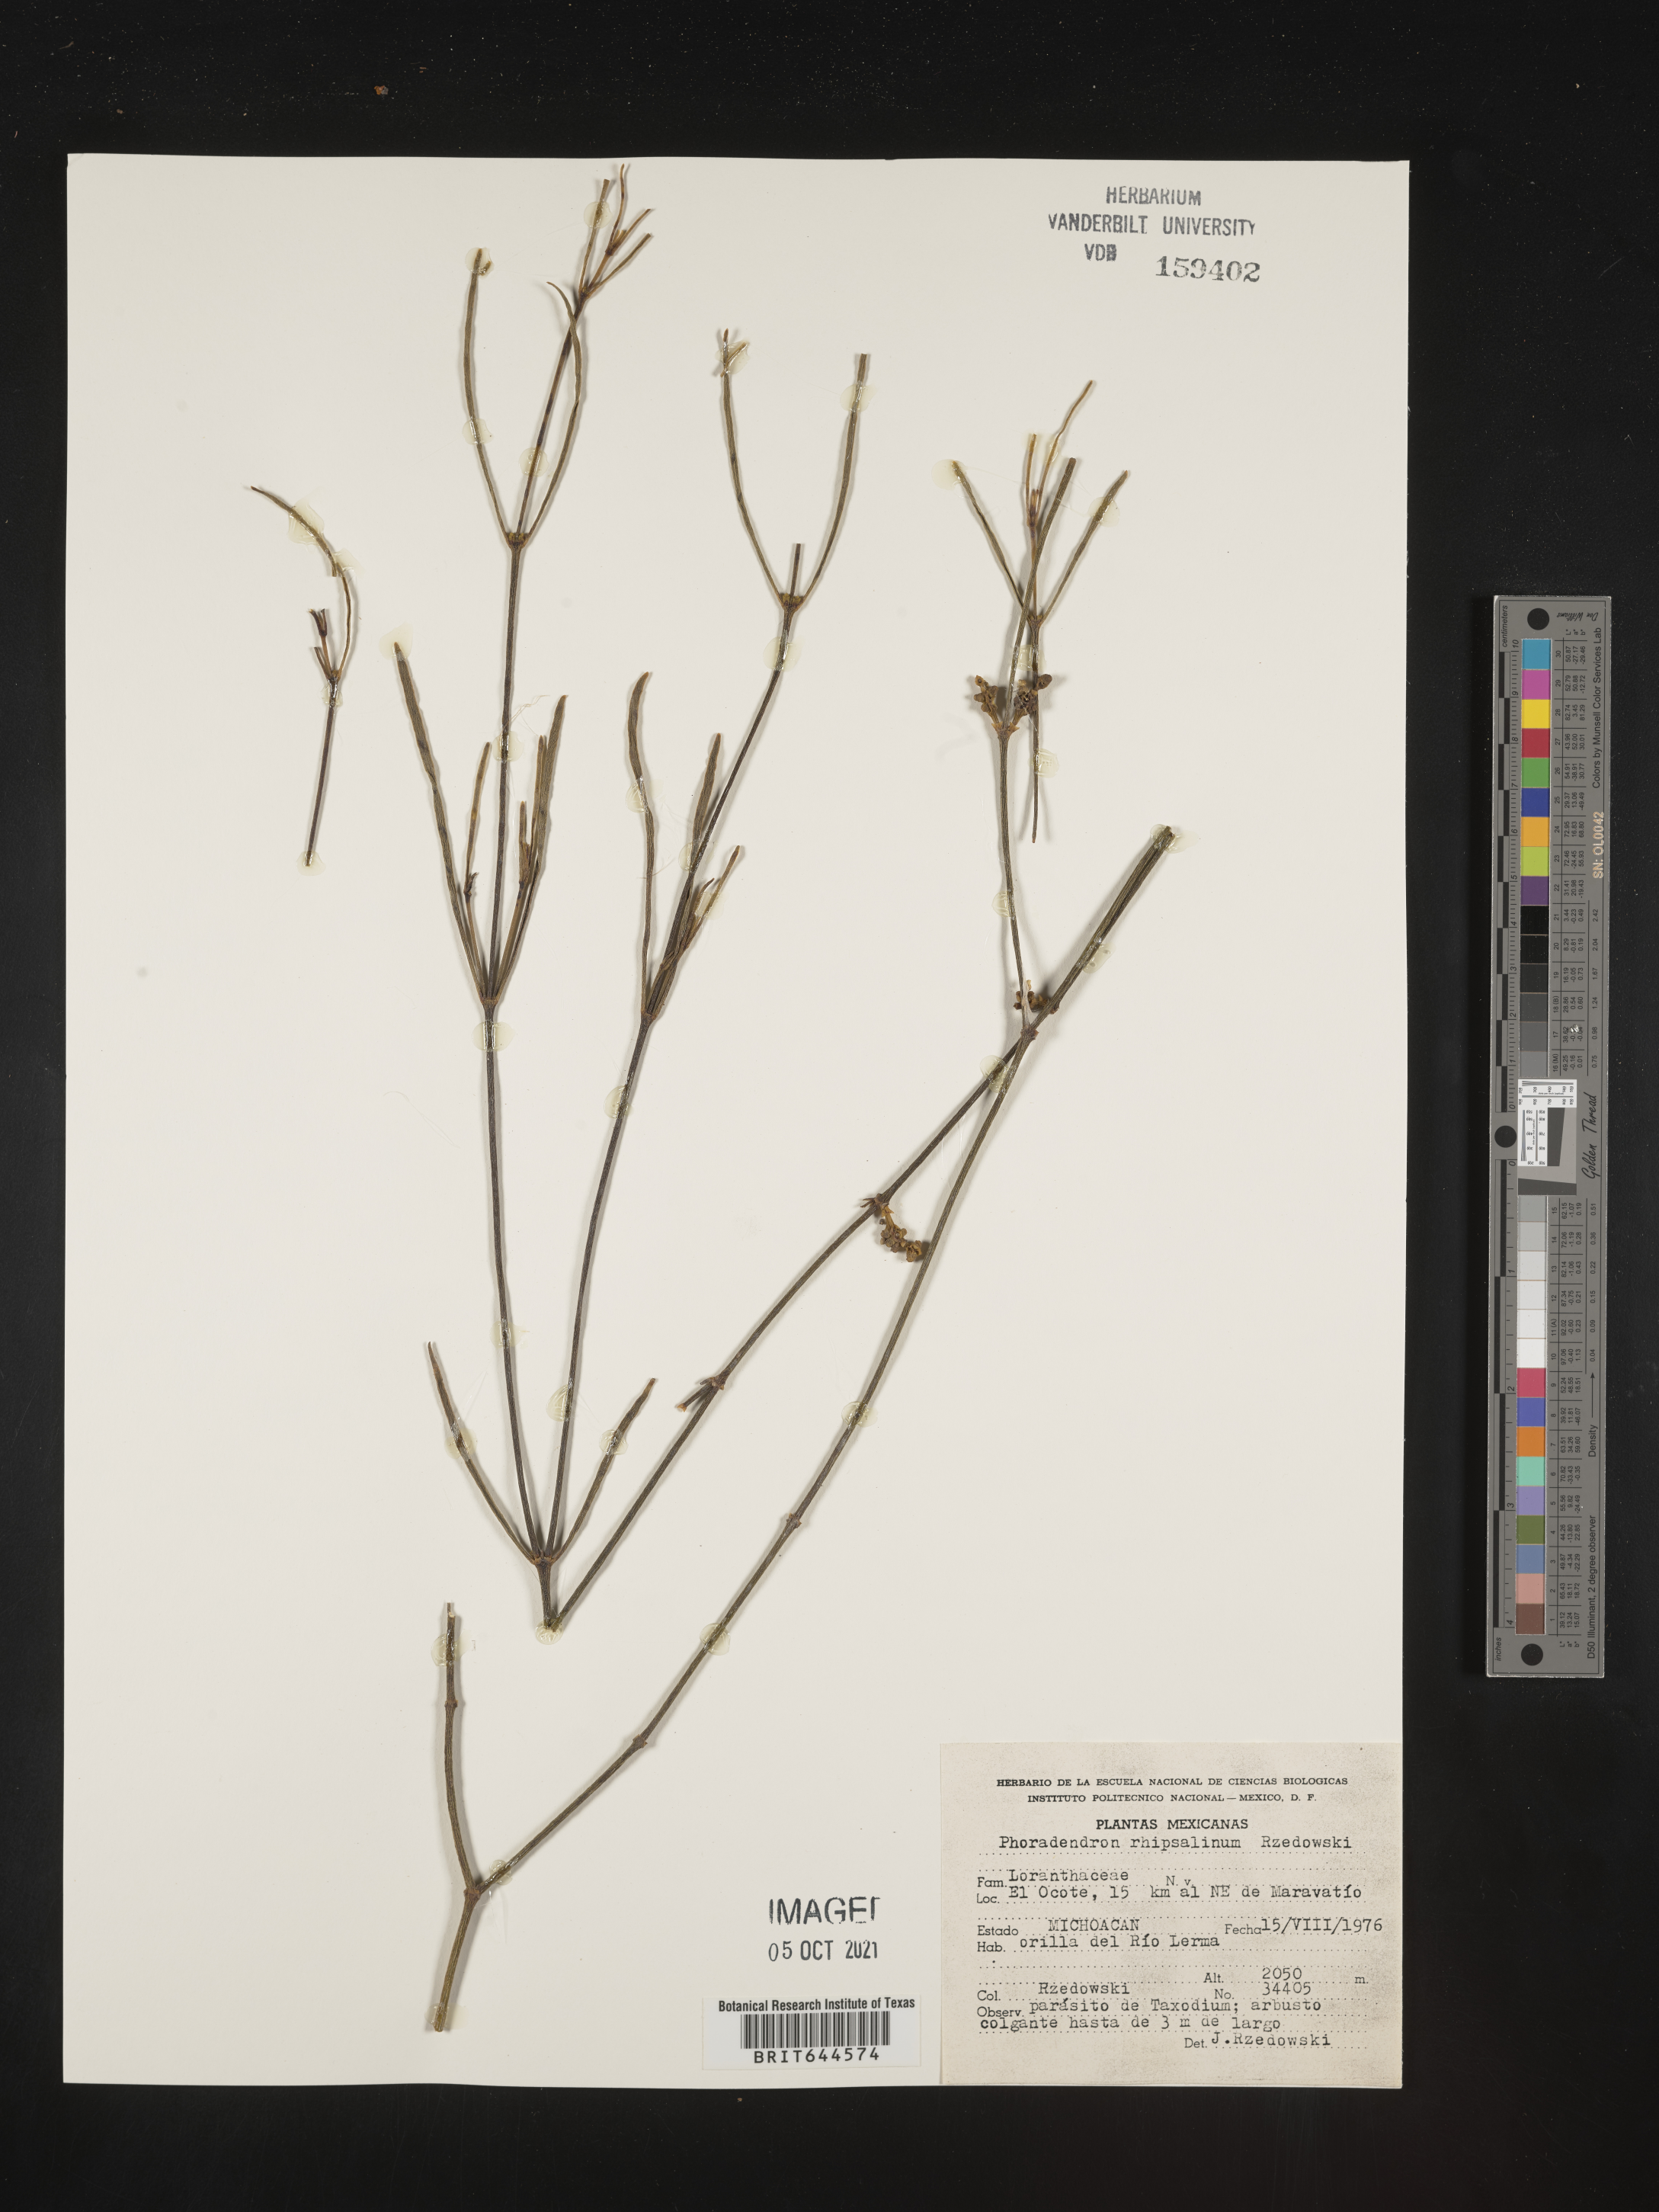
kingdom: Plantae
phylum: Tracheophyta
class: Magnoliopsida
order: Santalales
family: Viscaceae
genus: Phoradendron
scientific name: Phoradendron
